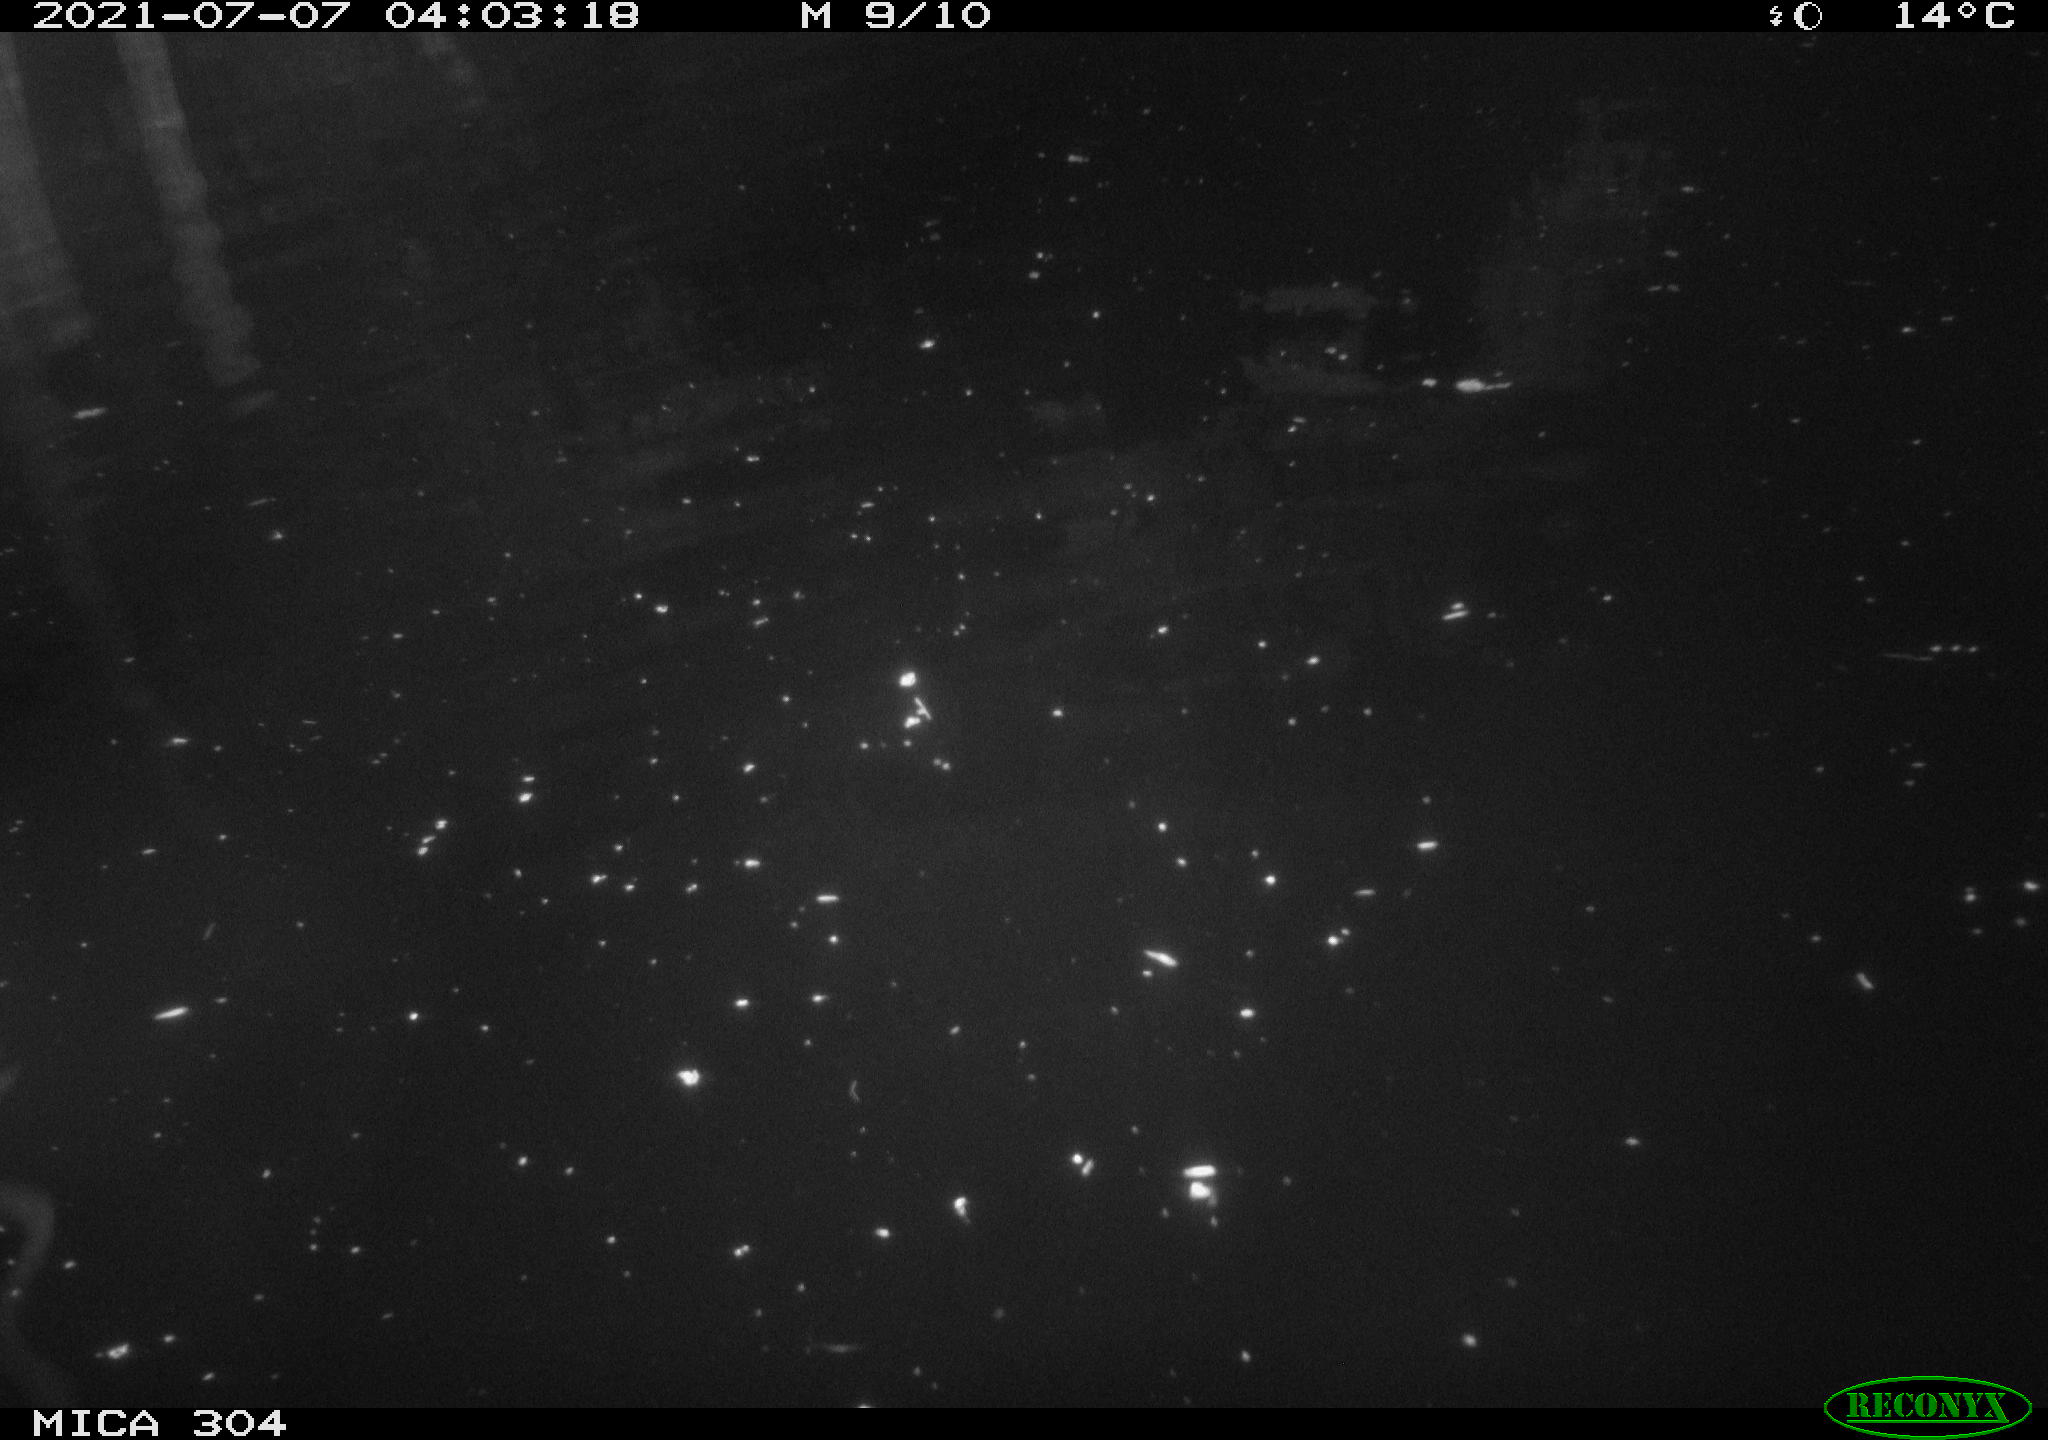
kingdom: Animalia
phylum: Chordata
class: Aves
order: Anseriformes
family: Anatidae
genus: Anas
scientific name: Anas platyrhynchos
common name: Mallard
